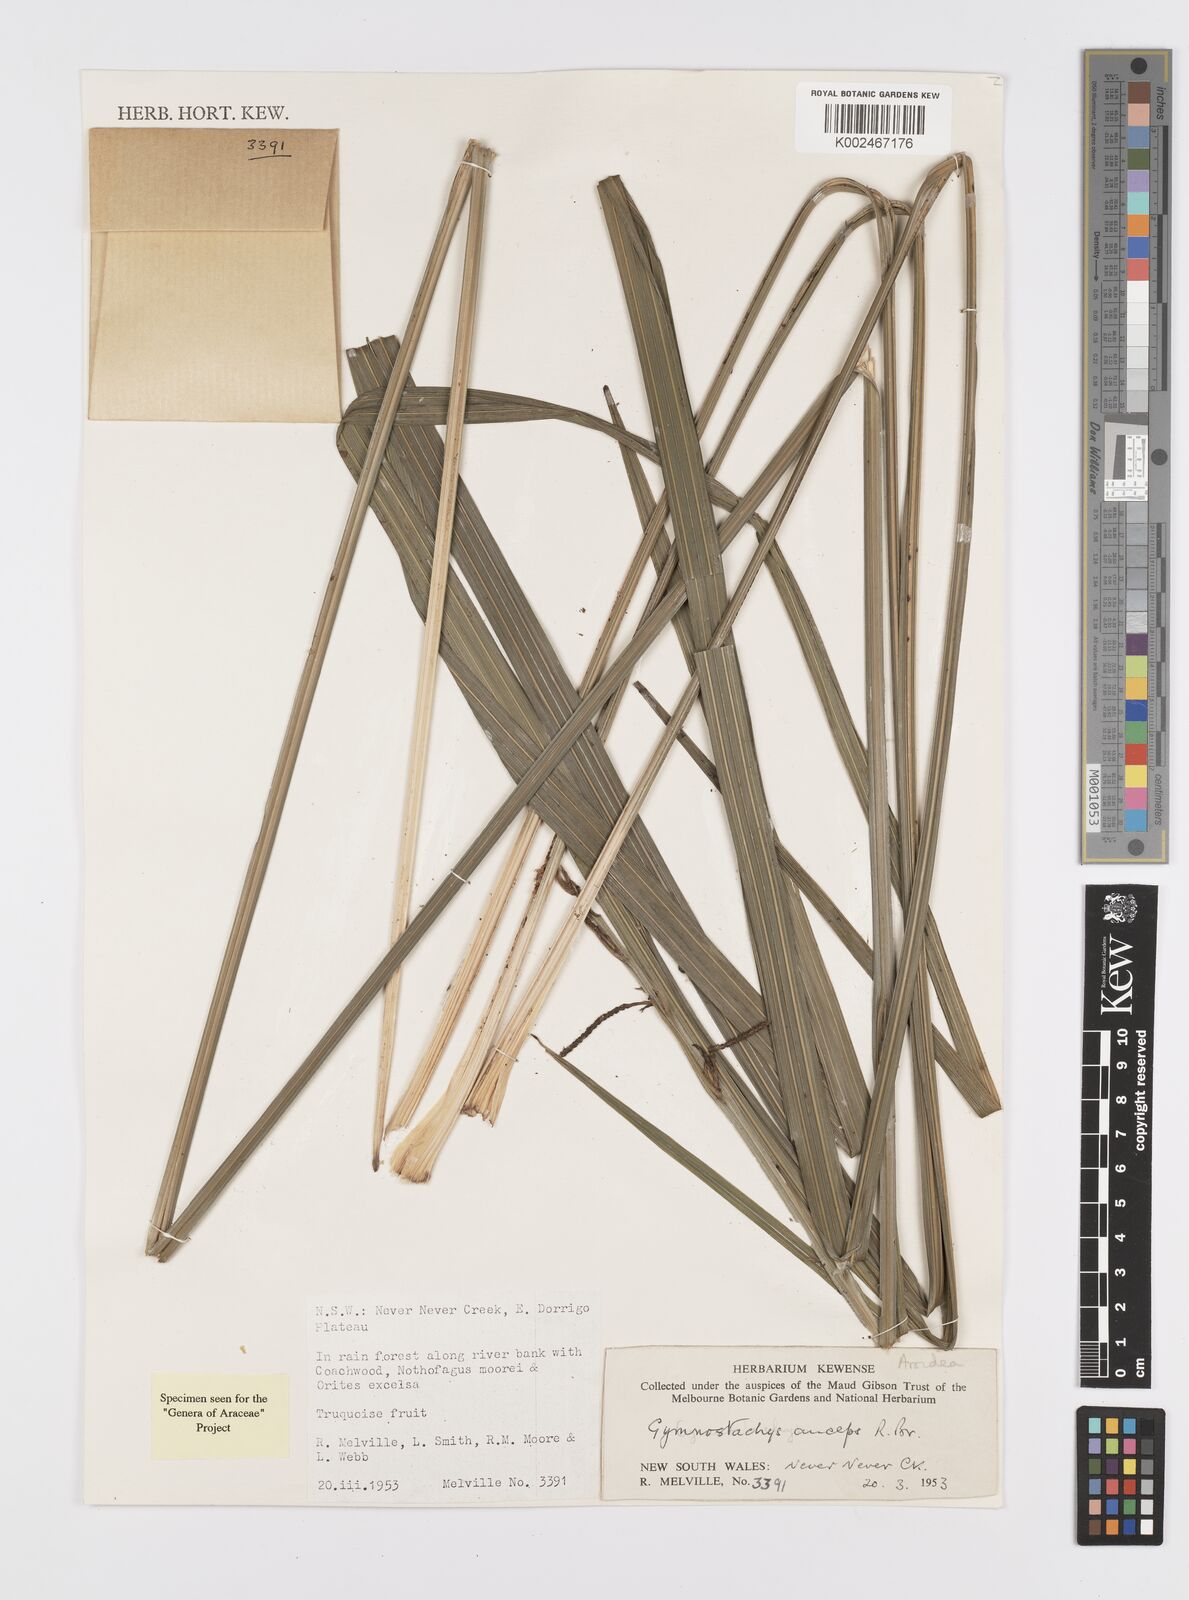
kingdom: Plantae
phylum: Tracheophyta
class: Liliopsida
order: Alismatales
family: Araceae
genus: Gymnostachys
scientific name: Gymnostachys anceps
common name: Settler's-flax
